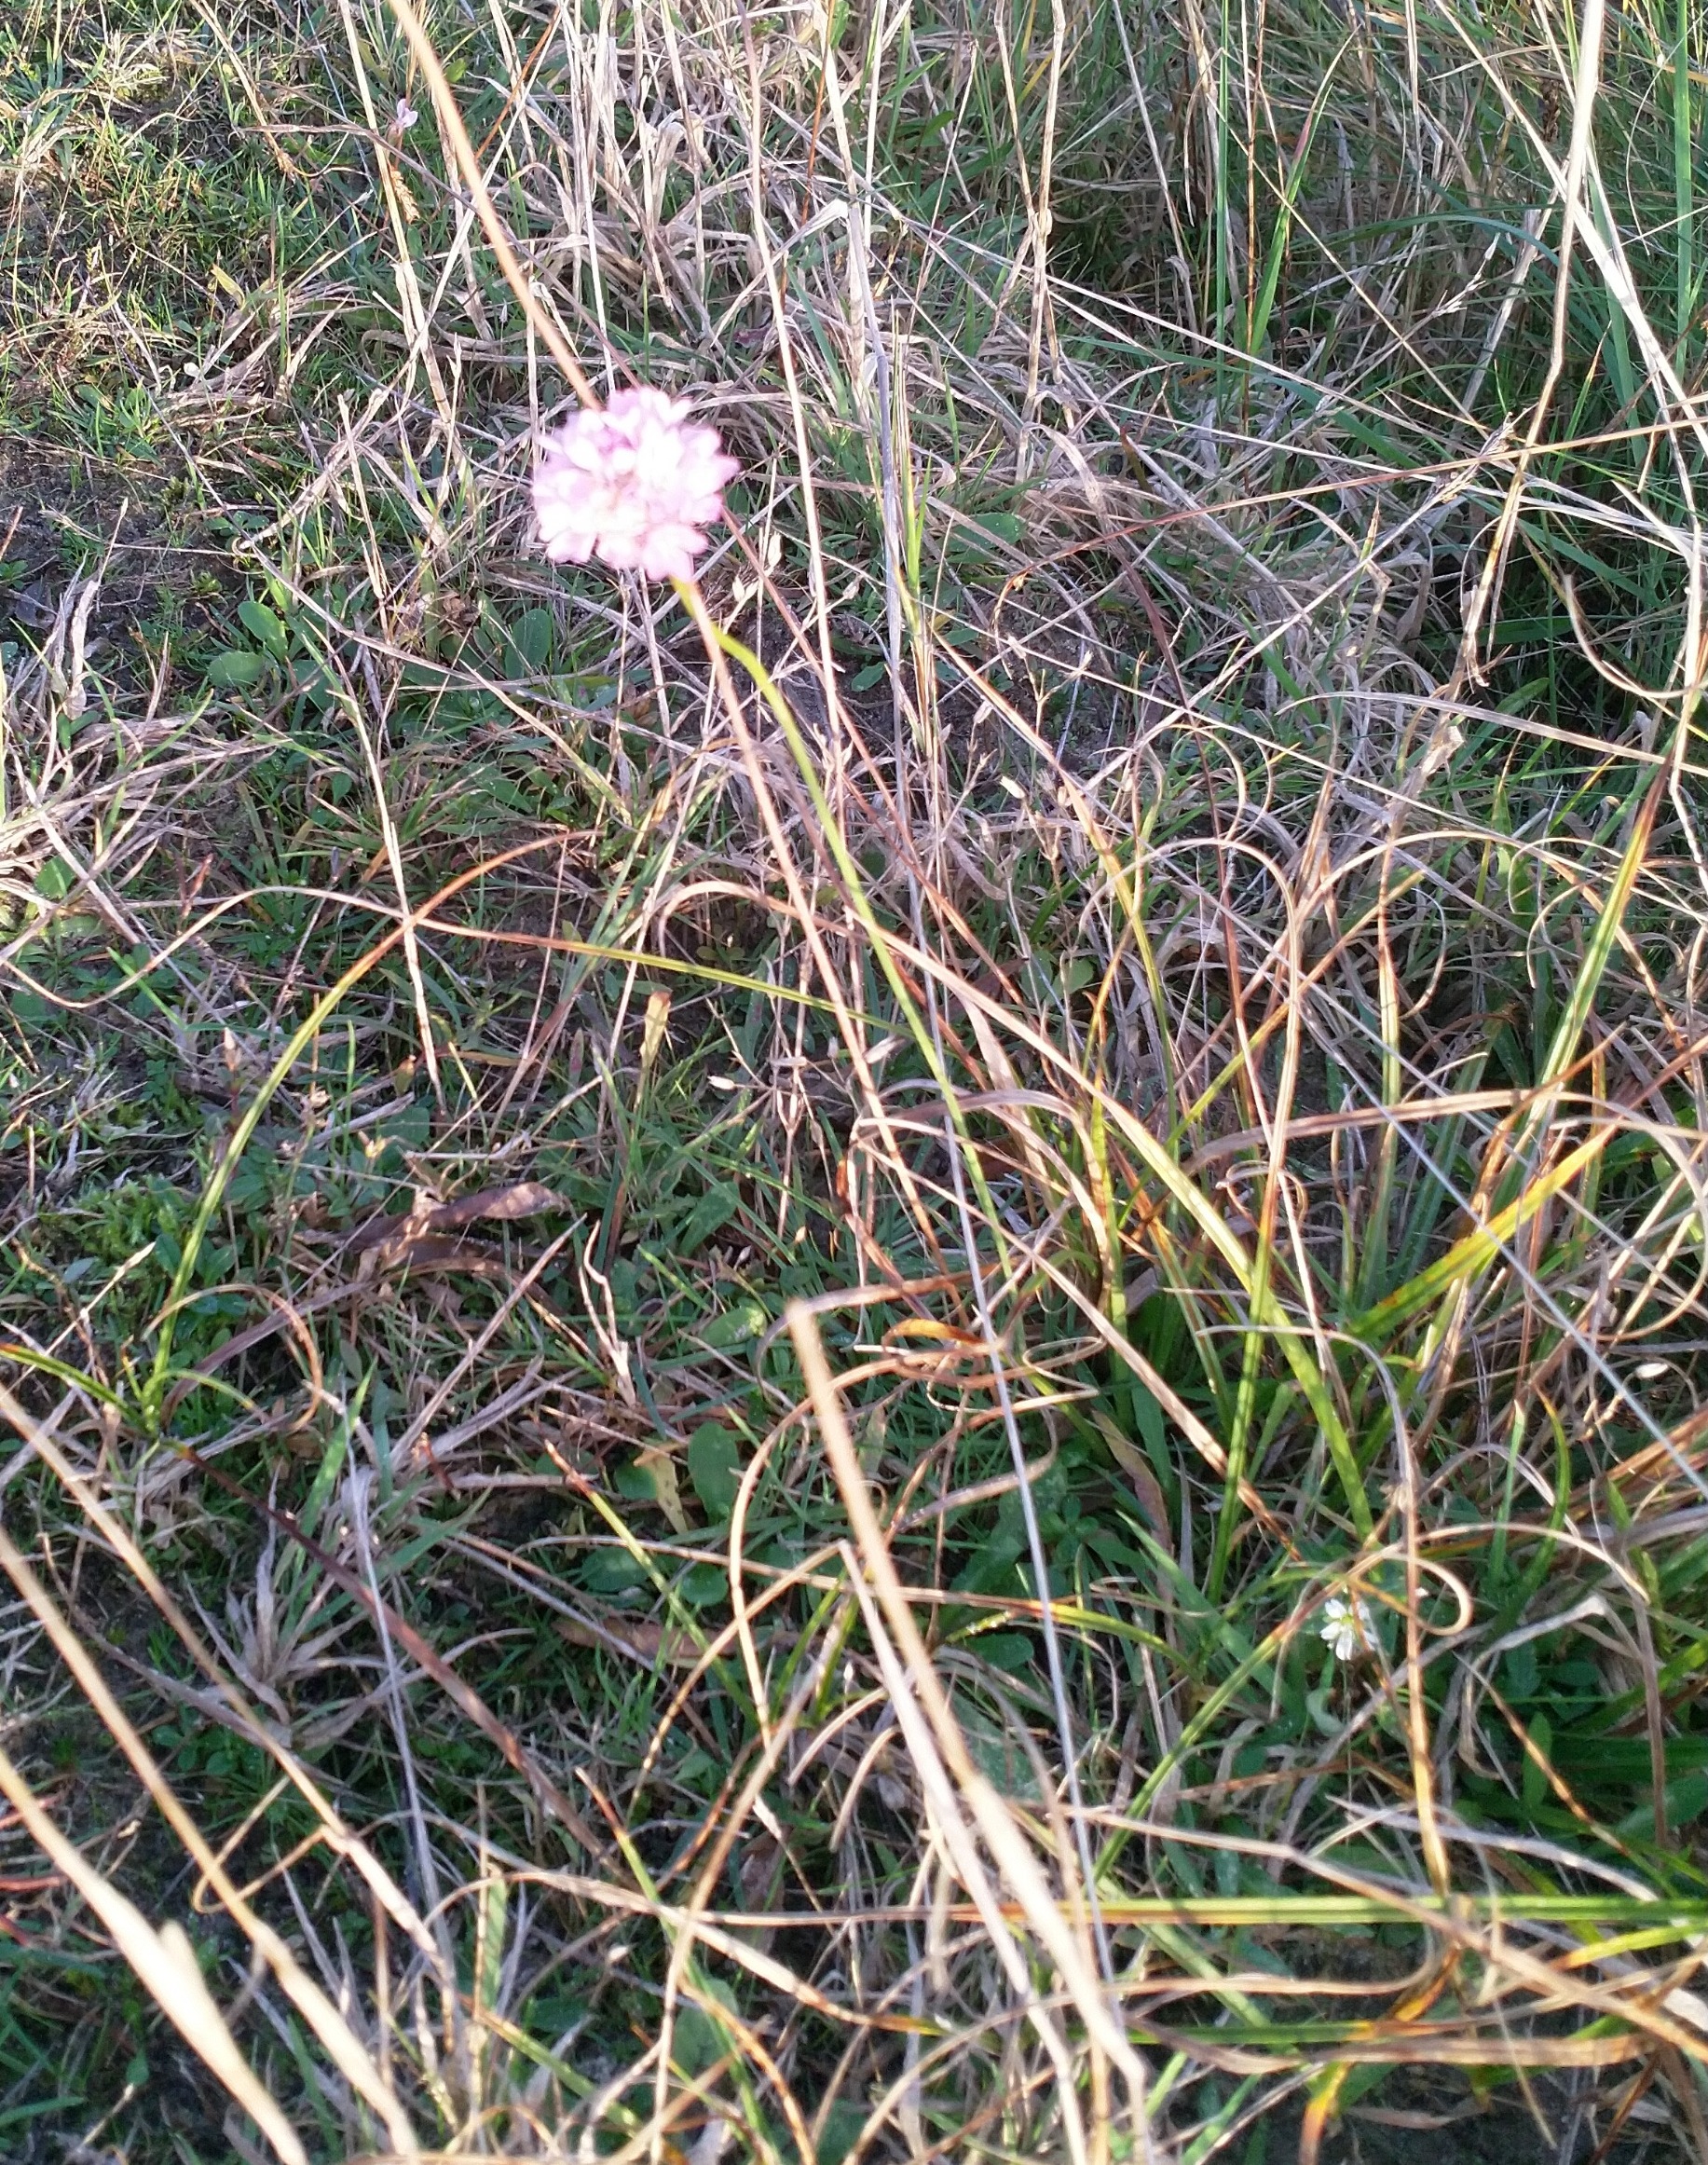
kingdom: Plantae
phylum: Tracheophyta
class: Magnoliopsida
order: Caryophyllales
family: Plumbaginaceae
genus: Armeria
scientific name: Armeria maritima
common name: Engelskgræs
